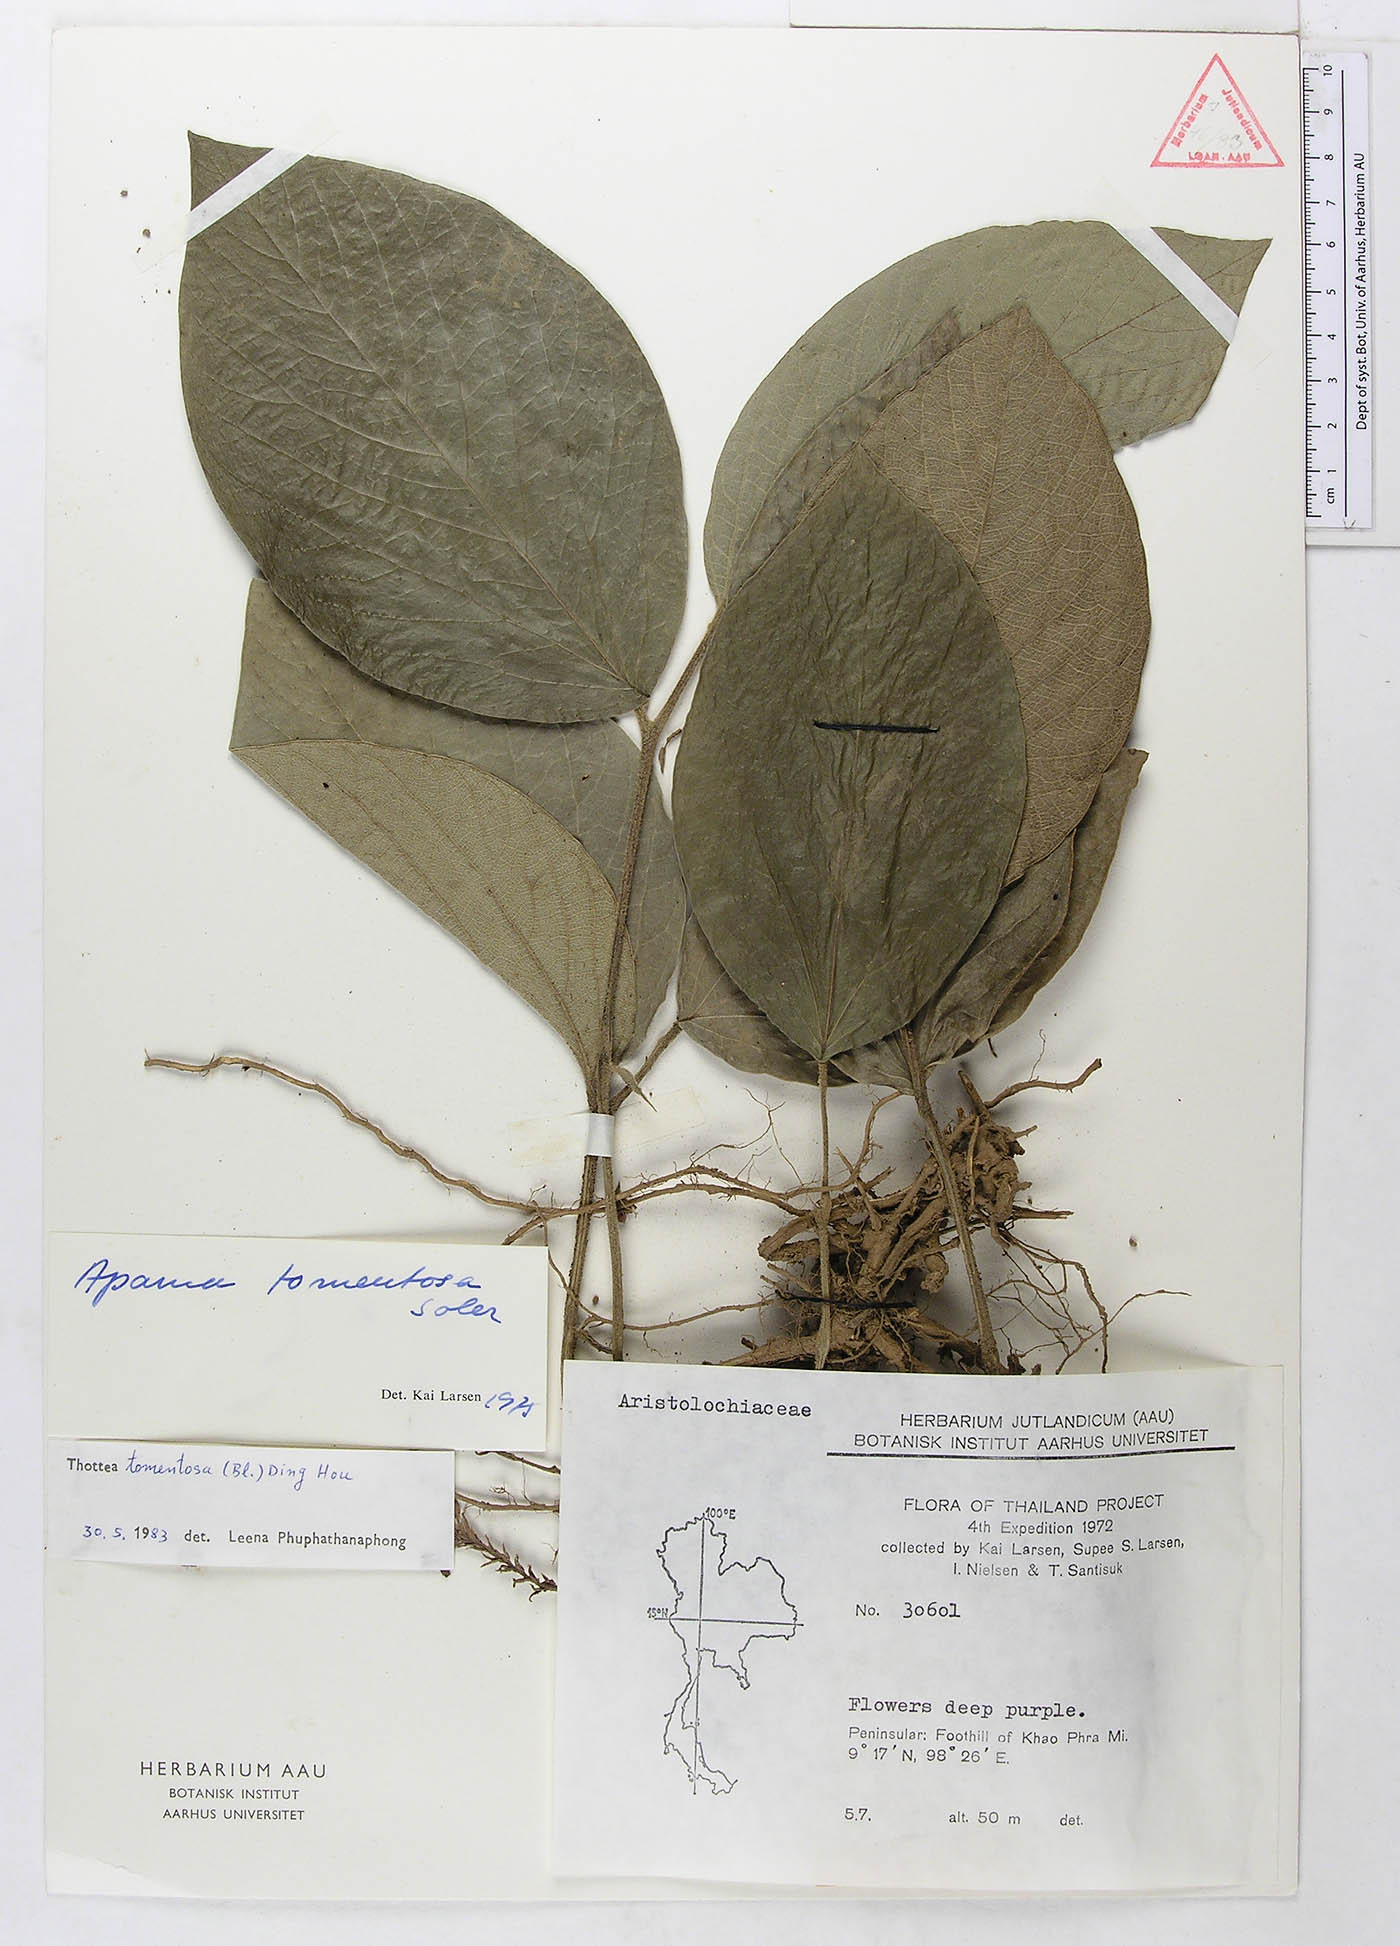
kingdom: Plantae
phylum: Tracheophyta
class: Magnoliopsida
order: Piperales
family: Aristolochiaceae
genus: Thottea
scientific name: Thottea tomentosa
